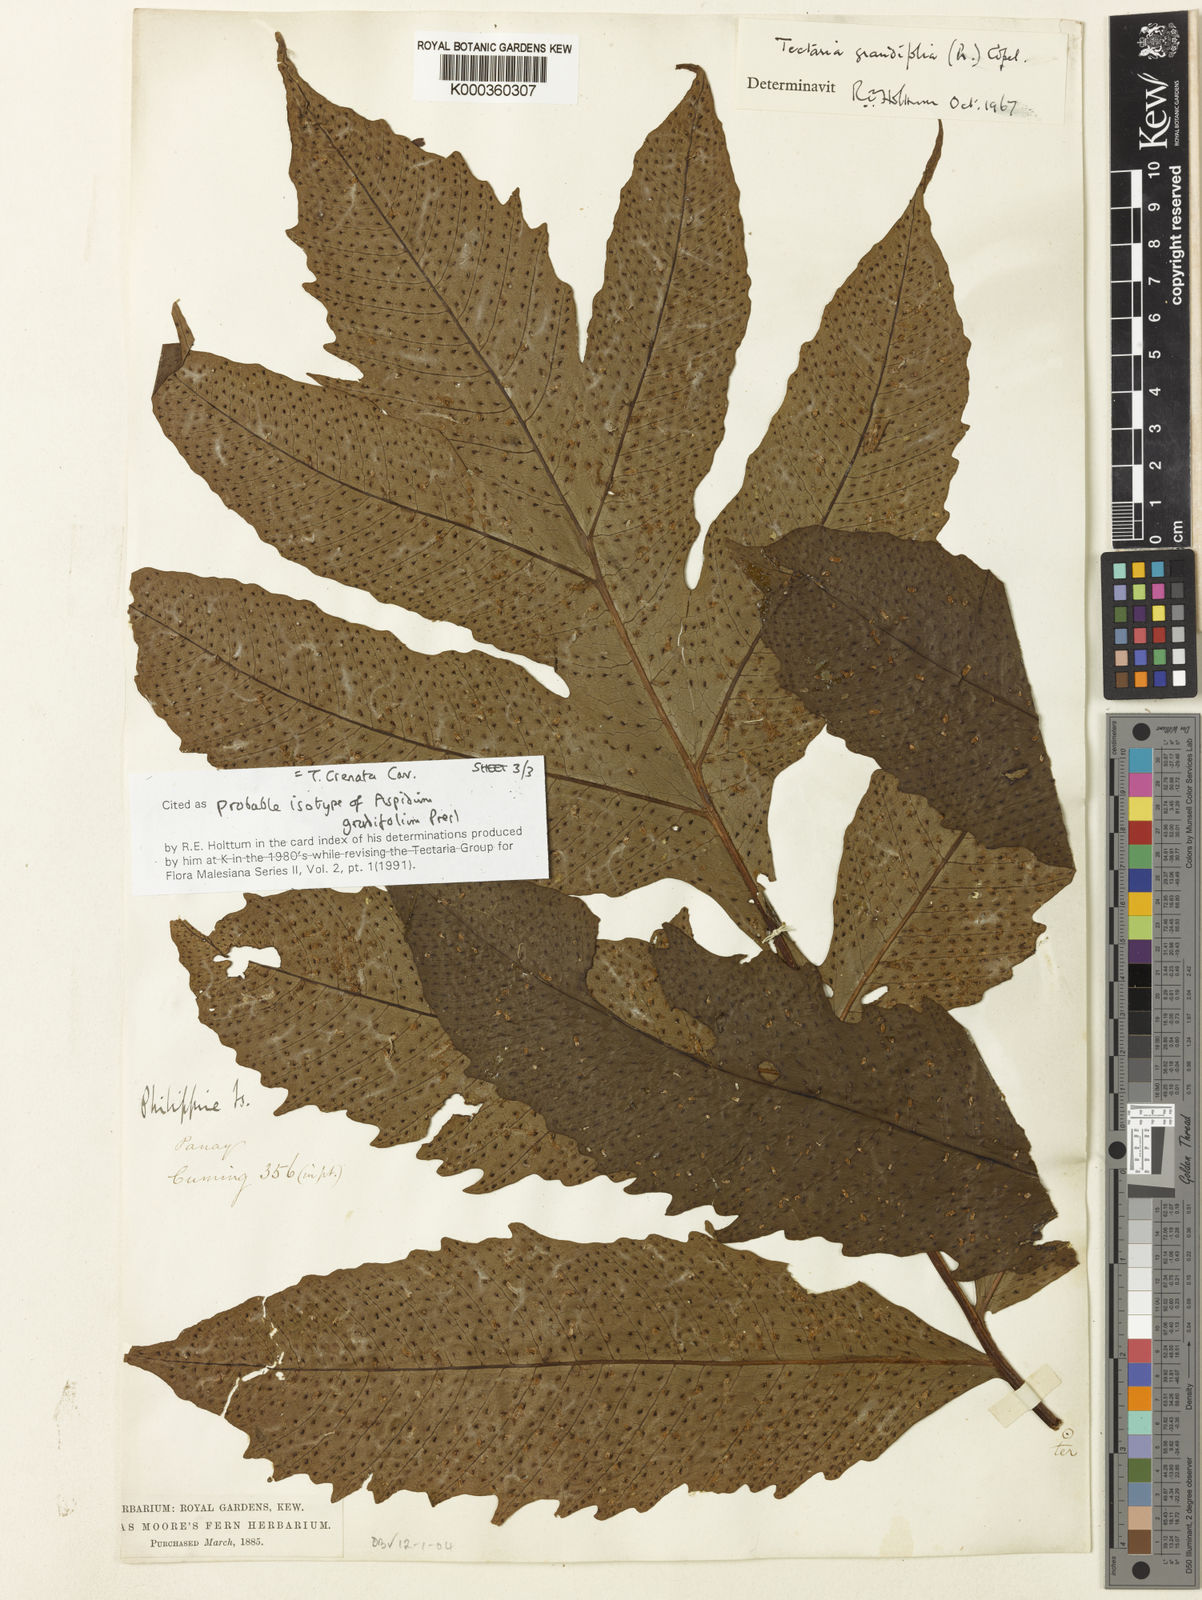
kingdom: Plantae
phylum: Tracheophyta
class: Polypodiopsida
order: Polypodiales
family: Tectariaceae
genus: Tectaria
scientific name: Tectaria crenata
